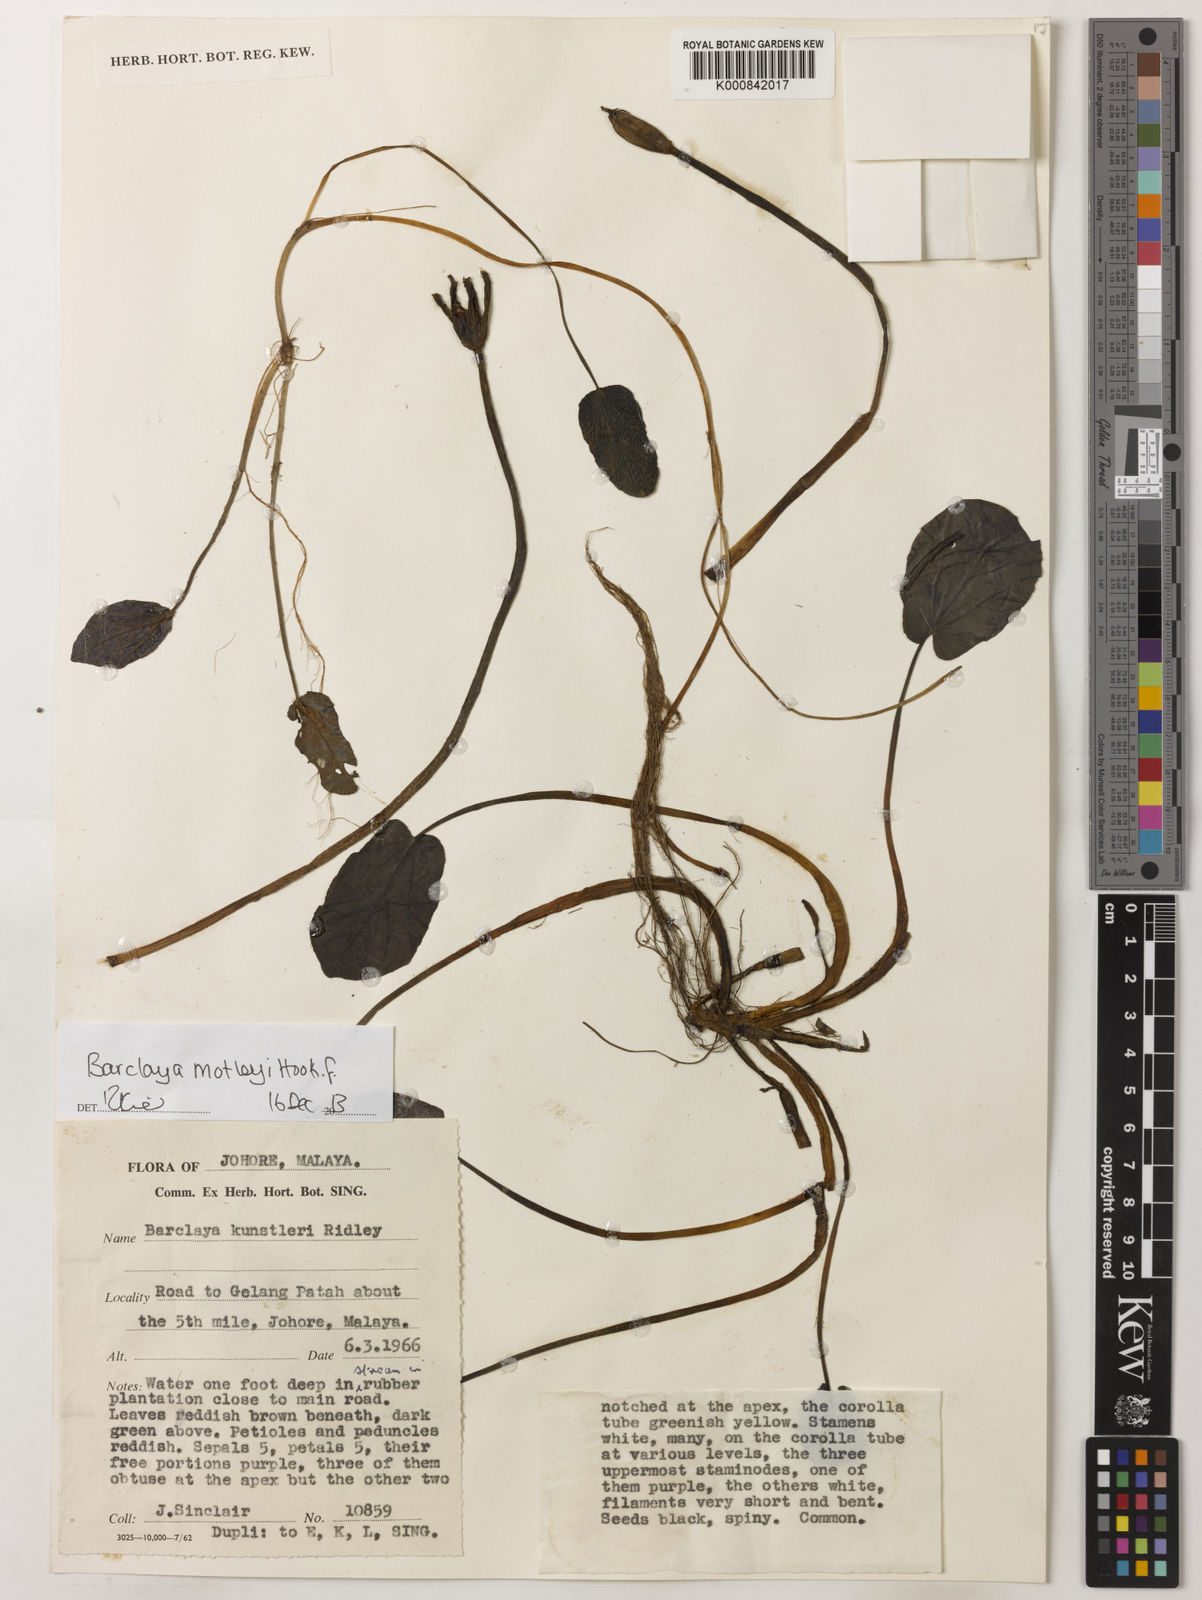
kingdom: Plantae
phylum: Tracheophyta
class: Magnoliopsida
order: Nymphaeales
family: Nymphaeaceae
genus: Barclaya
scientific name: Barclaya motleyi
